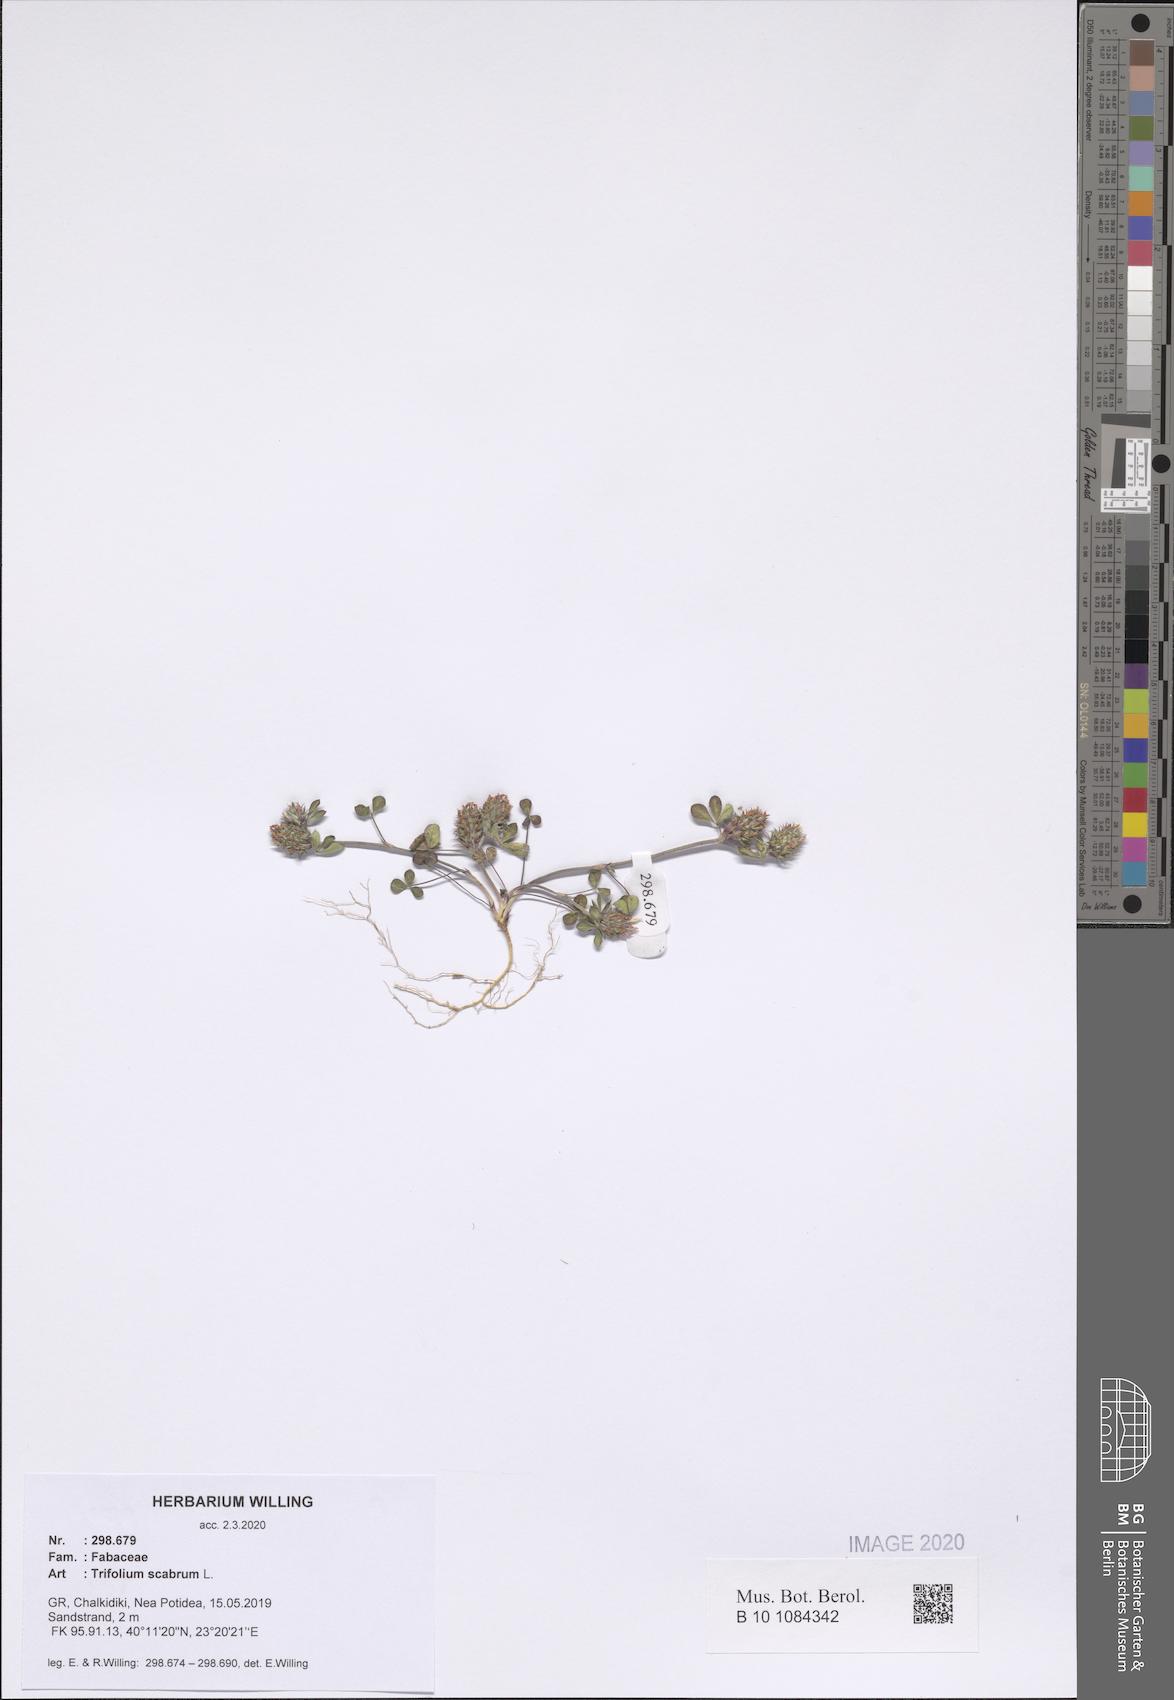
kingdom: Plantae
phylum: Tracheophyta
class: Magnoliopsida
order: Fabales
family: Fabaceae
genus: Trifolium
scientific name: Trifolium scabrum
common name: Rough clover
